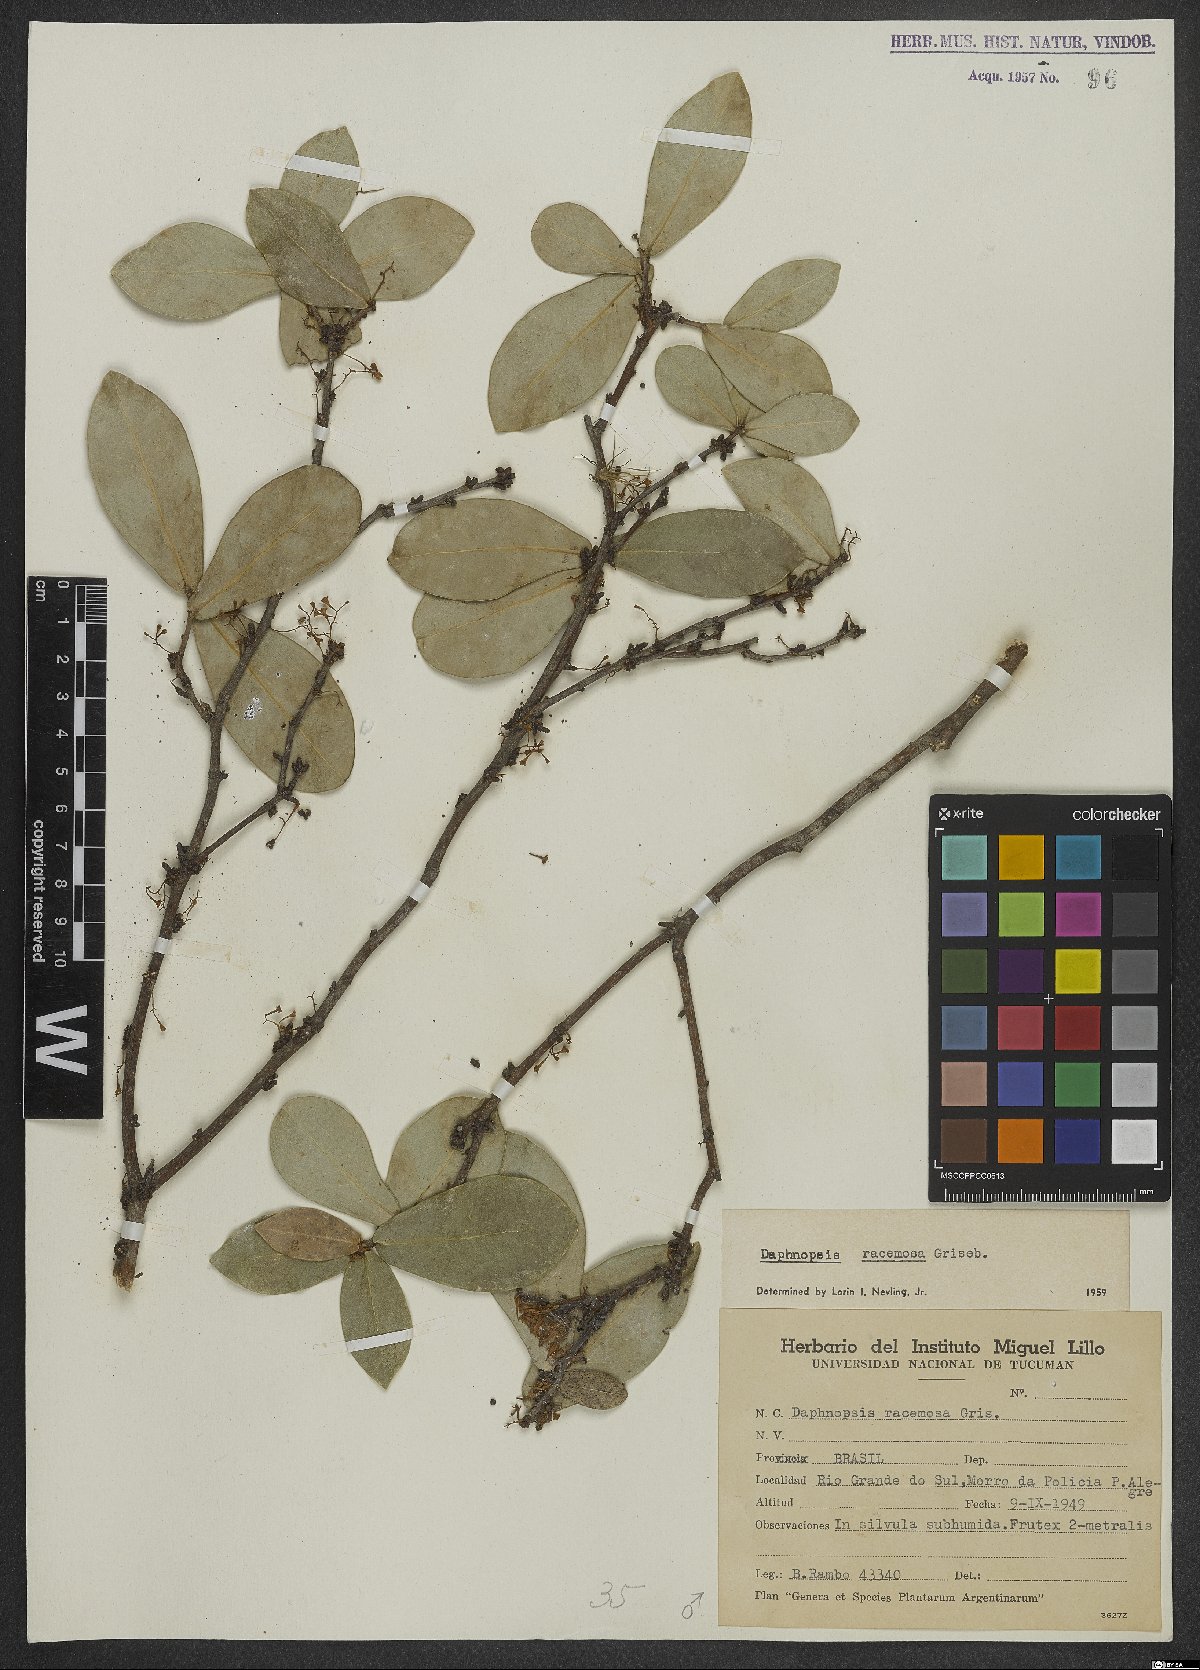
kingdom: Plantae
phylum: Tracheophyta
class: Magnoliopsida
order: Malvales
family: Thymelaeaceae
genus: Daphnopsis
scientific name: Daphnopsis racemosa
